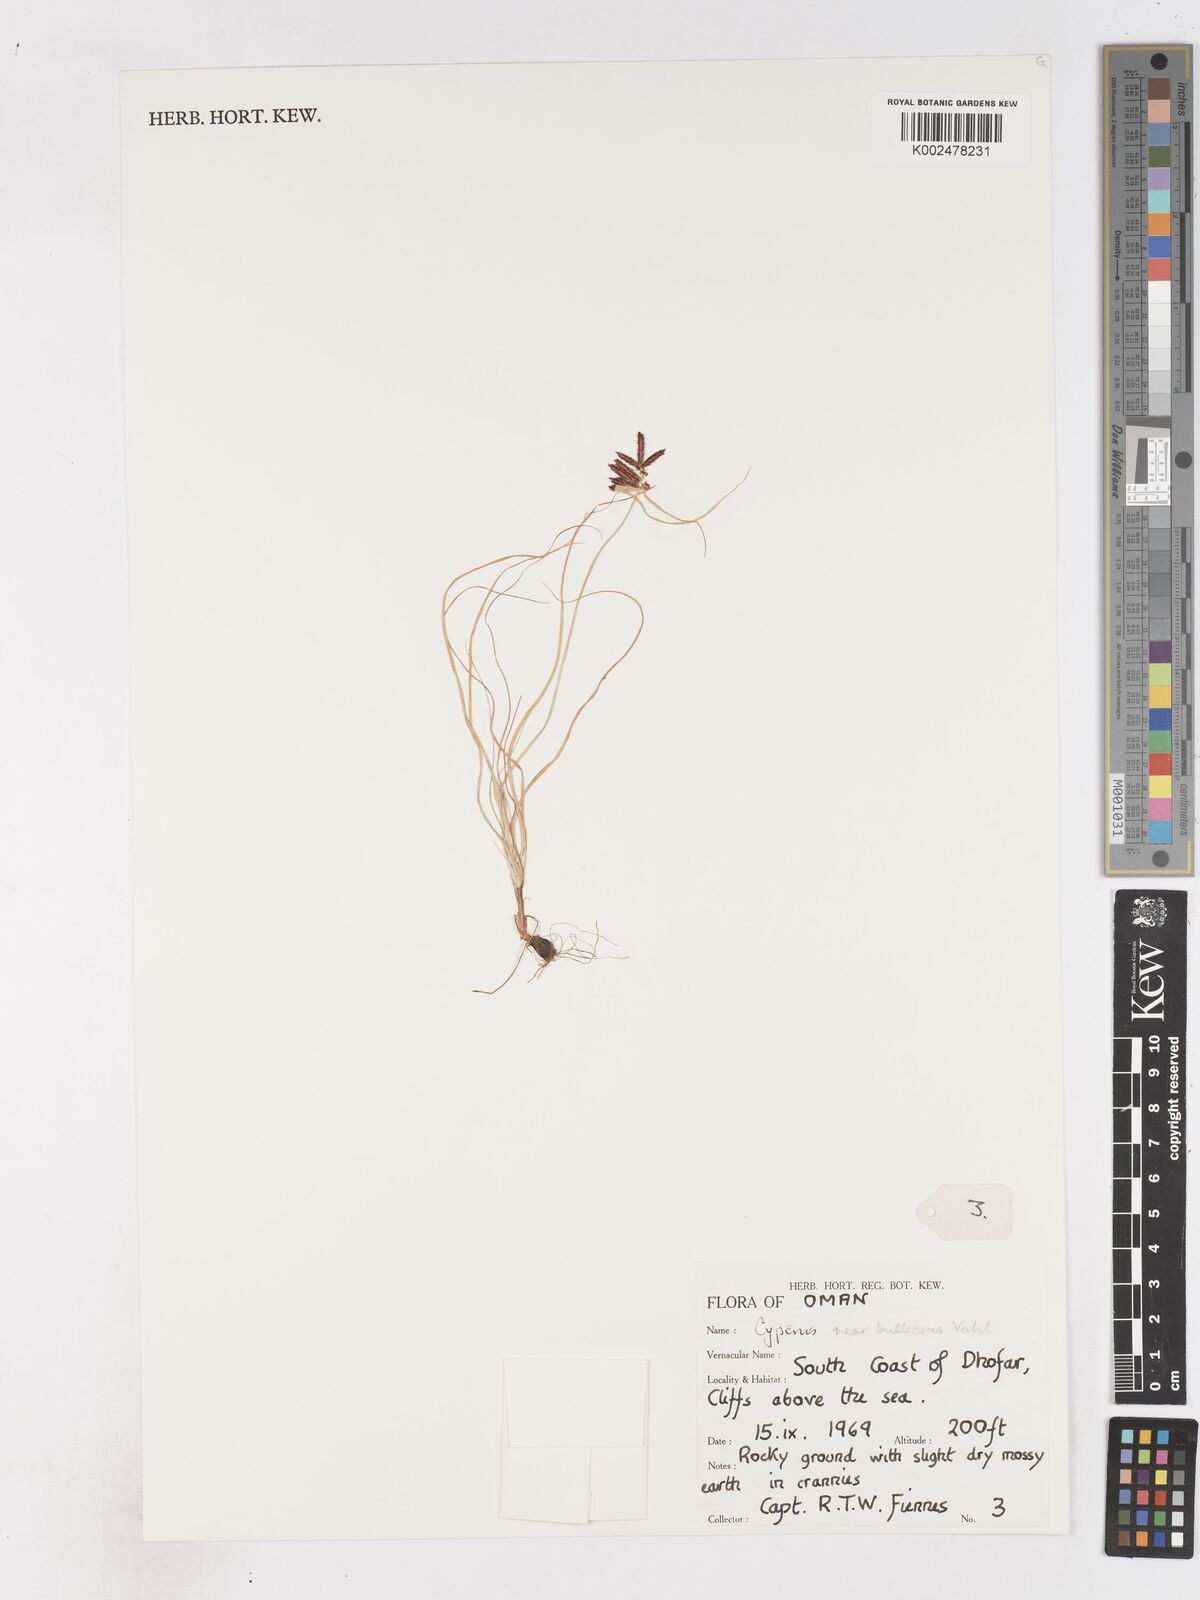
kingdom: Plantae
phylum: Tracheophyta
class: Liliopsida
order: Poales
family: Cyperaceae
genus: Cyperus
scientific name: Cyperus bulbosus
